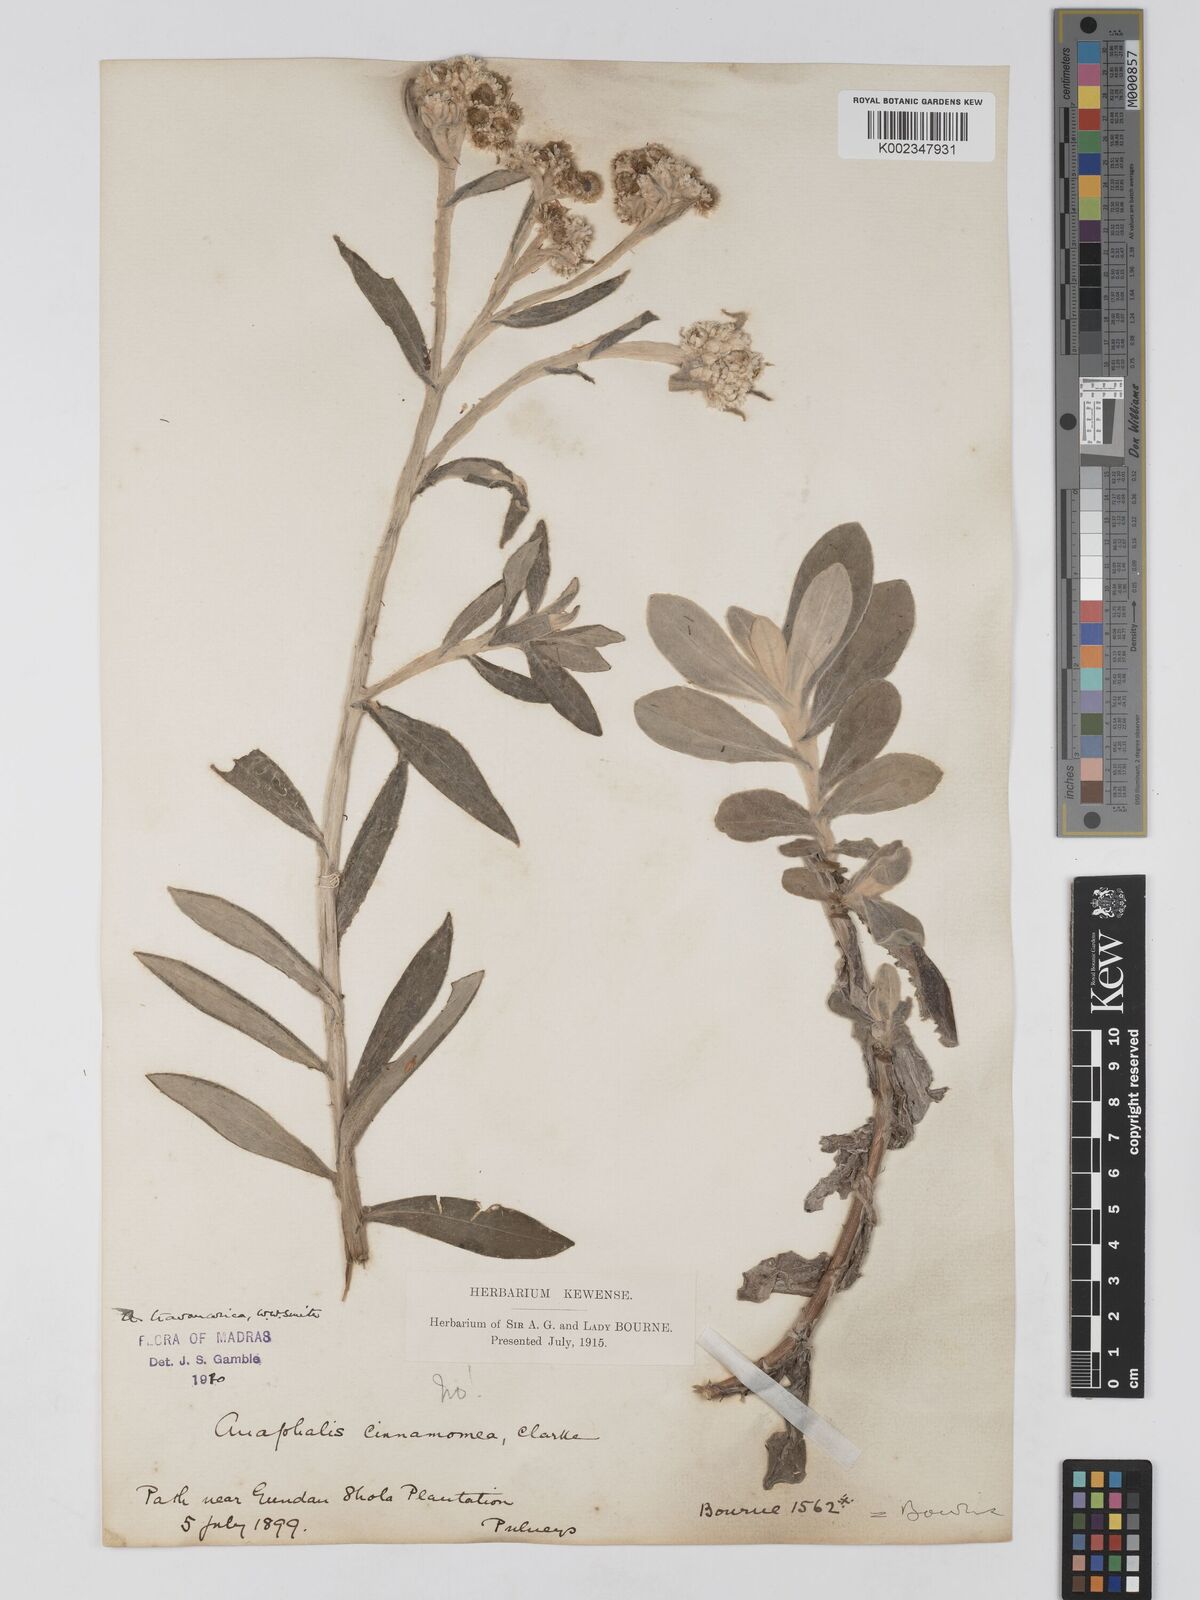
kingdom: Plantae
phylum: Tracheophyta
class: Magnoliopsida
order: Asterales
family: Asteraceae
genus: Anaphalis
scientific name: Anaphalis travancorica
